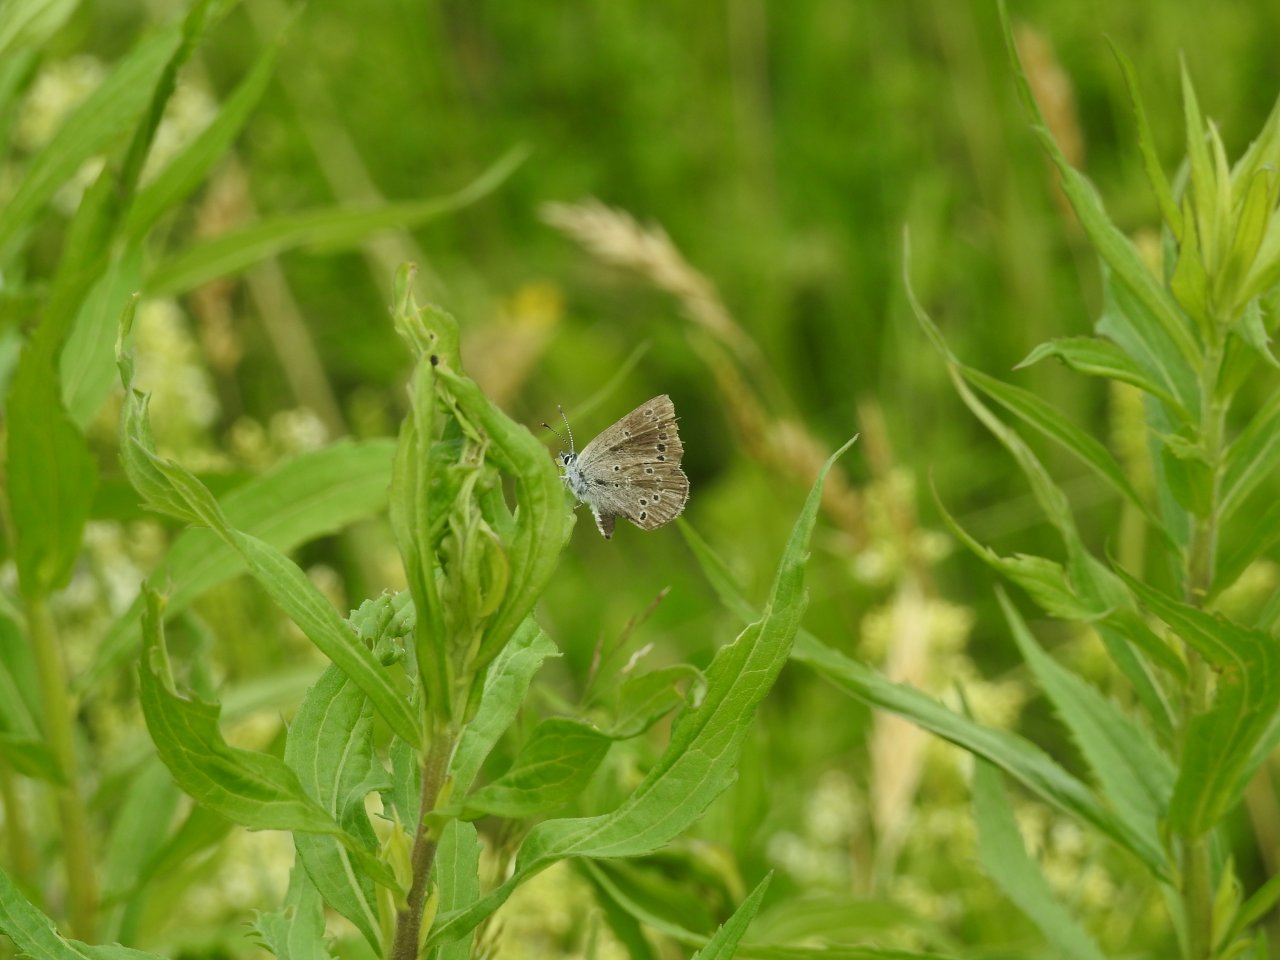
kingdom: Animalia
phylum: Arthropoda
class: Insecta
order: Lepidoptera
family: Lycaenidae
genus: Glaucopsyche
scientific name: Glaucopsyche lygdamus
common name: Silvery Blue
